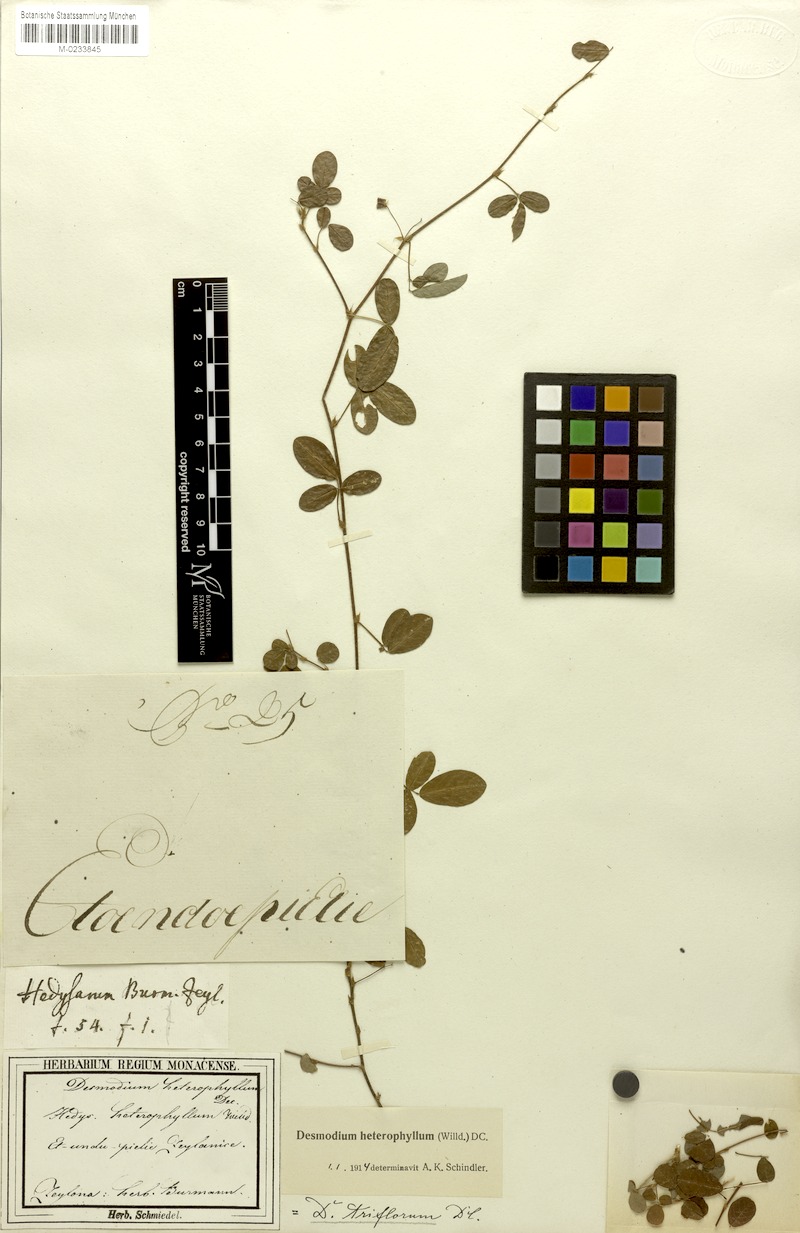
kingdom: Plantae
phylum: Tracheophyta
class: Magnoliopsida
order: Fabales
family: Fabaceae
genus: Grona
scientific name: Grona heterophylla
